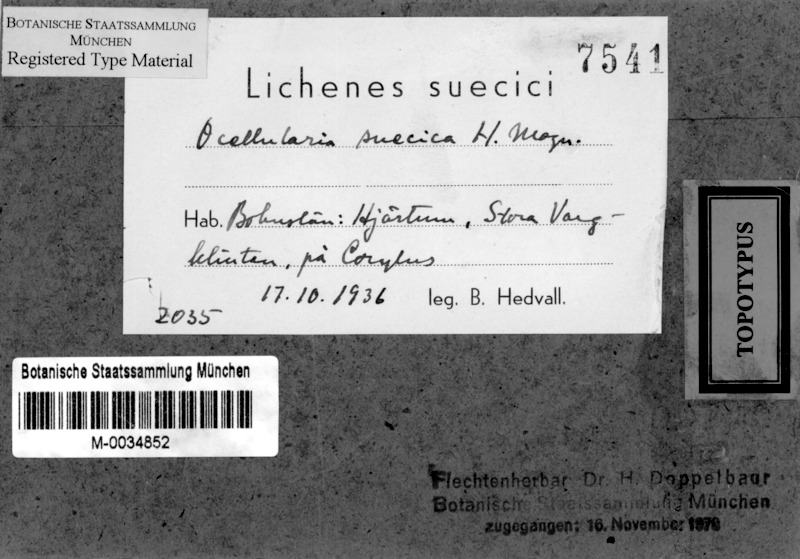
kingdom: Fungi
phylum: Ascomycota
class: Lecanoromycetes
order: Ostropales
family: Graphidaceae
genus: Thelotrema
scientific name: Thelotrema suecicum
